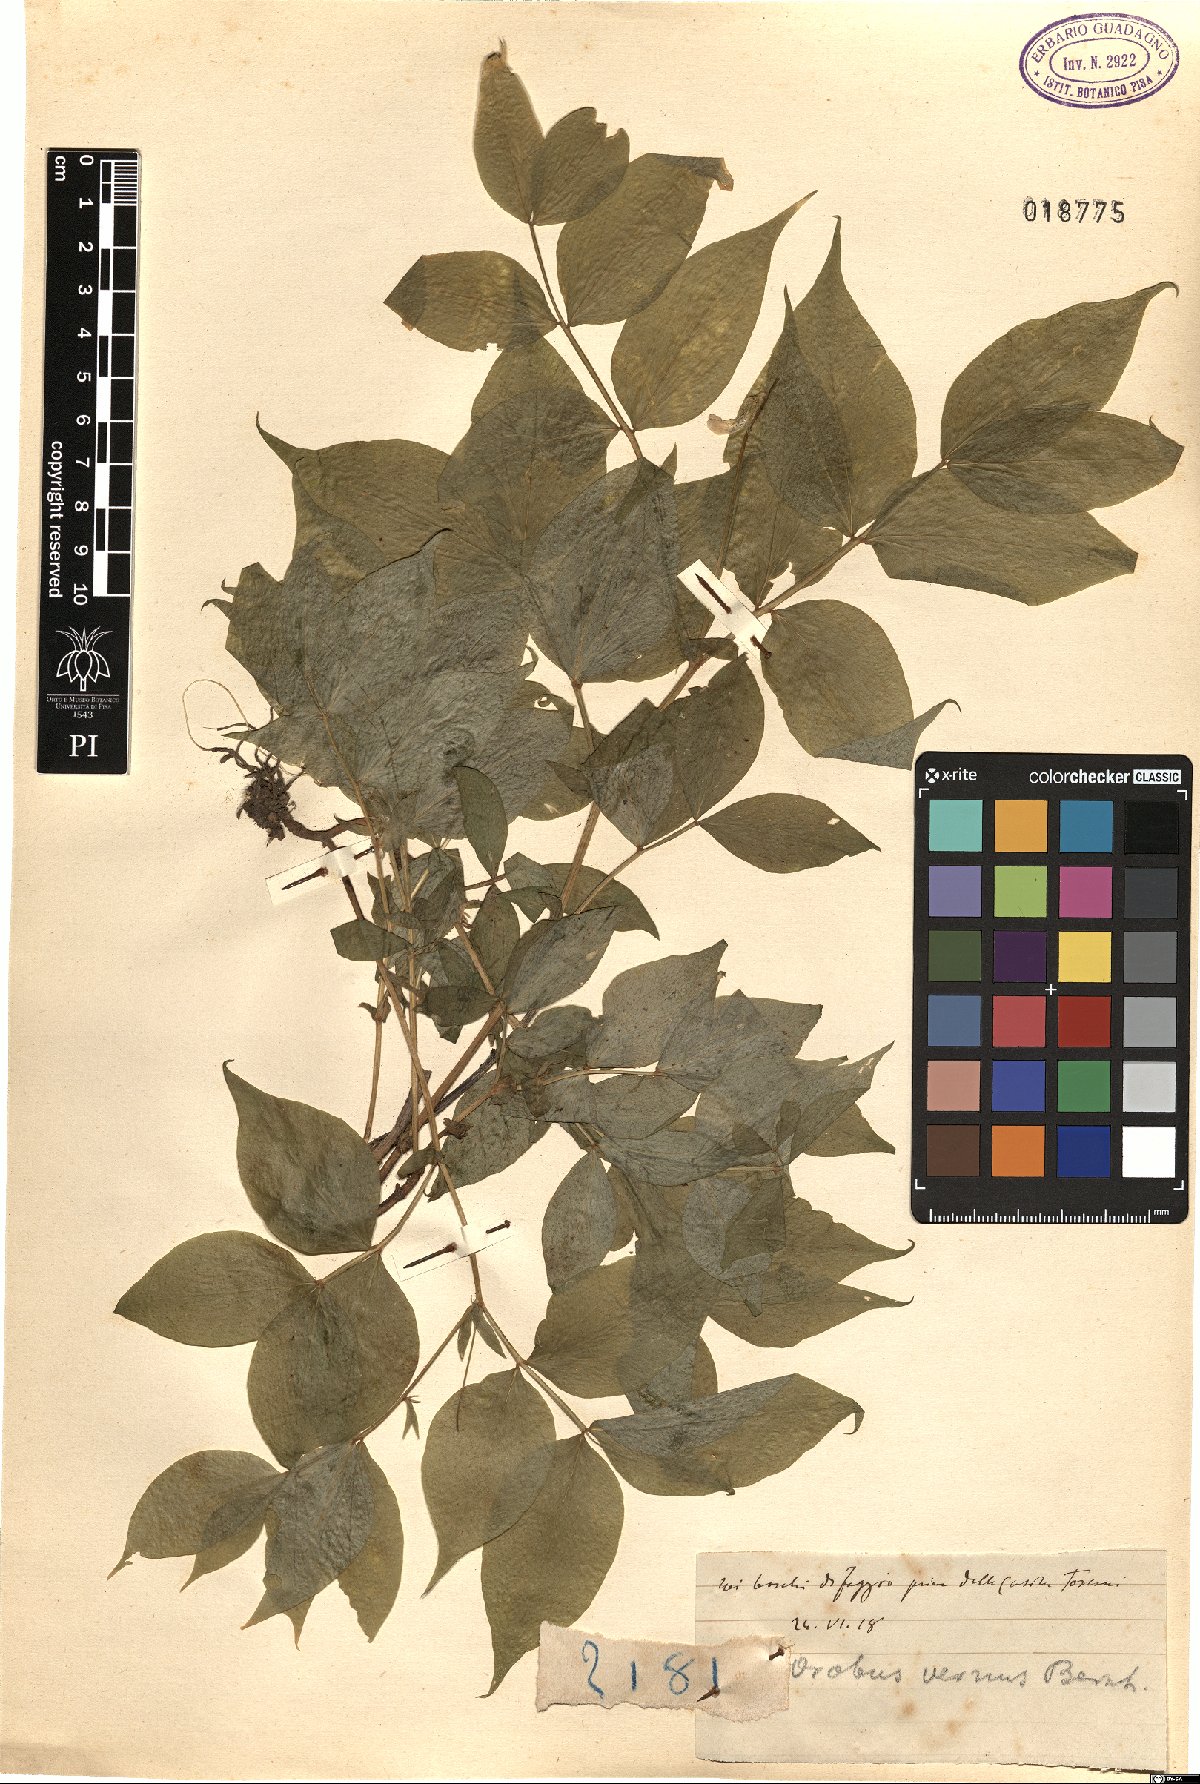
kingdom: Plantae
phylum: Tracheophyta
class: Magnoliopsida
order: Fabales
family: Fabaceae
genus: Lathyrus
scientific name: Lathyrus vernus
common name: Spring pea
